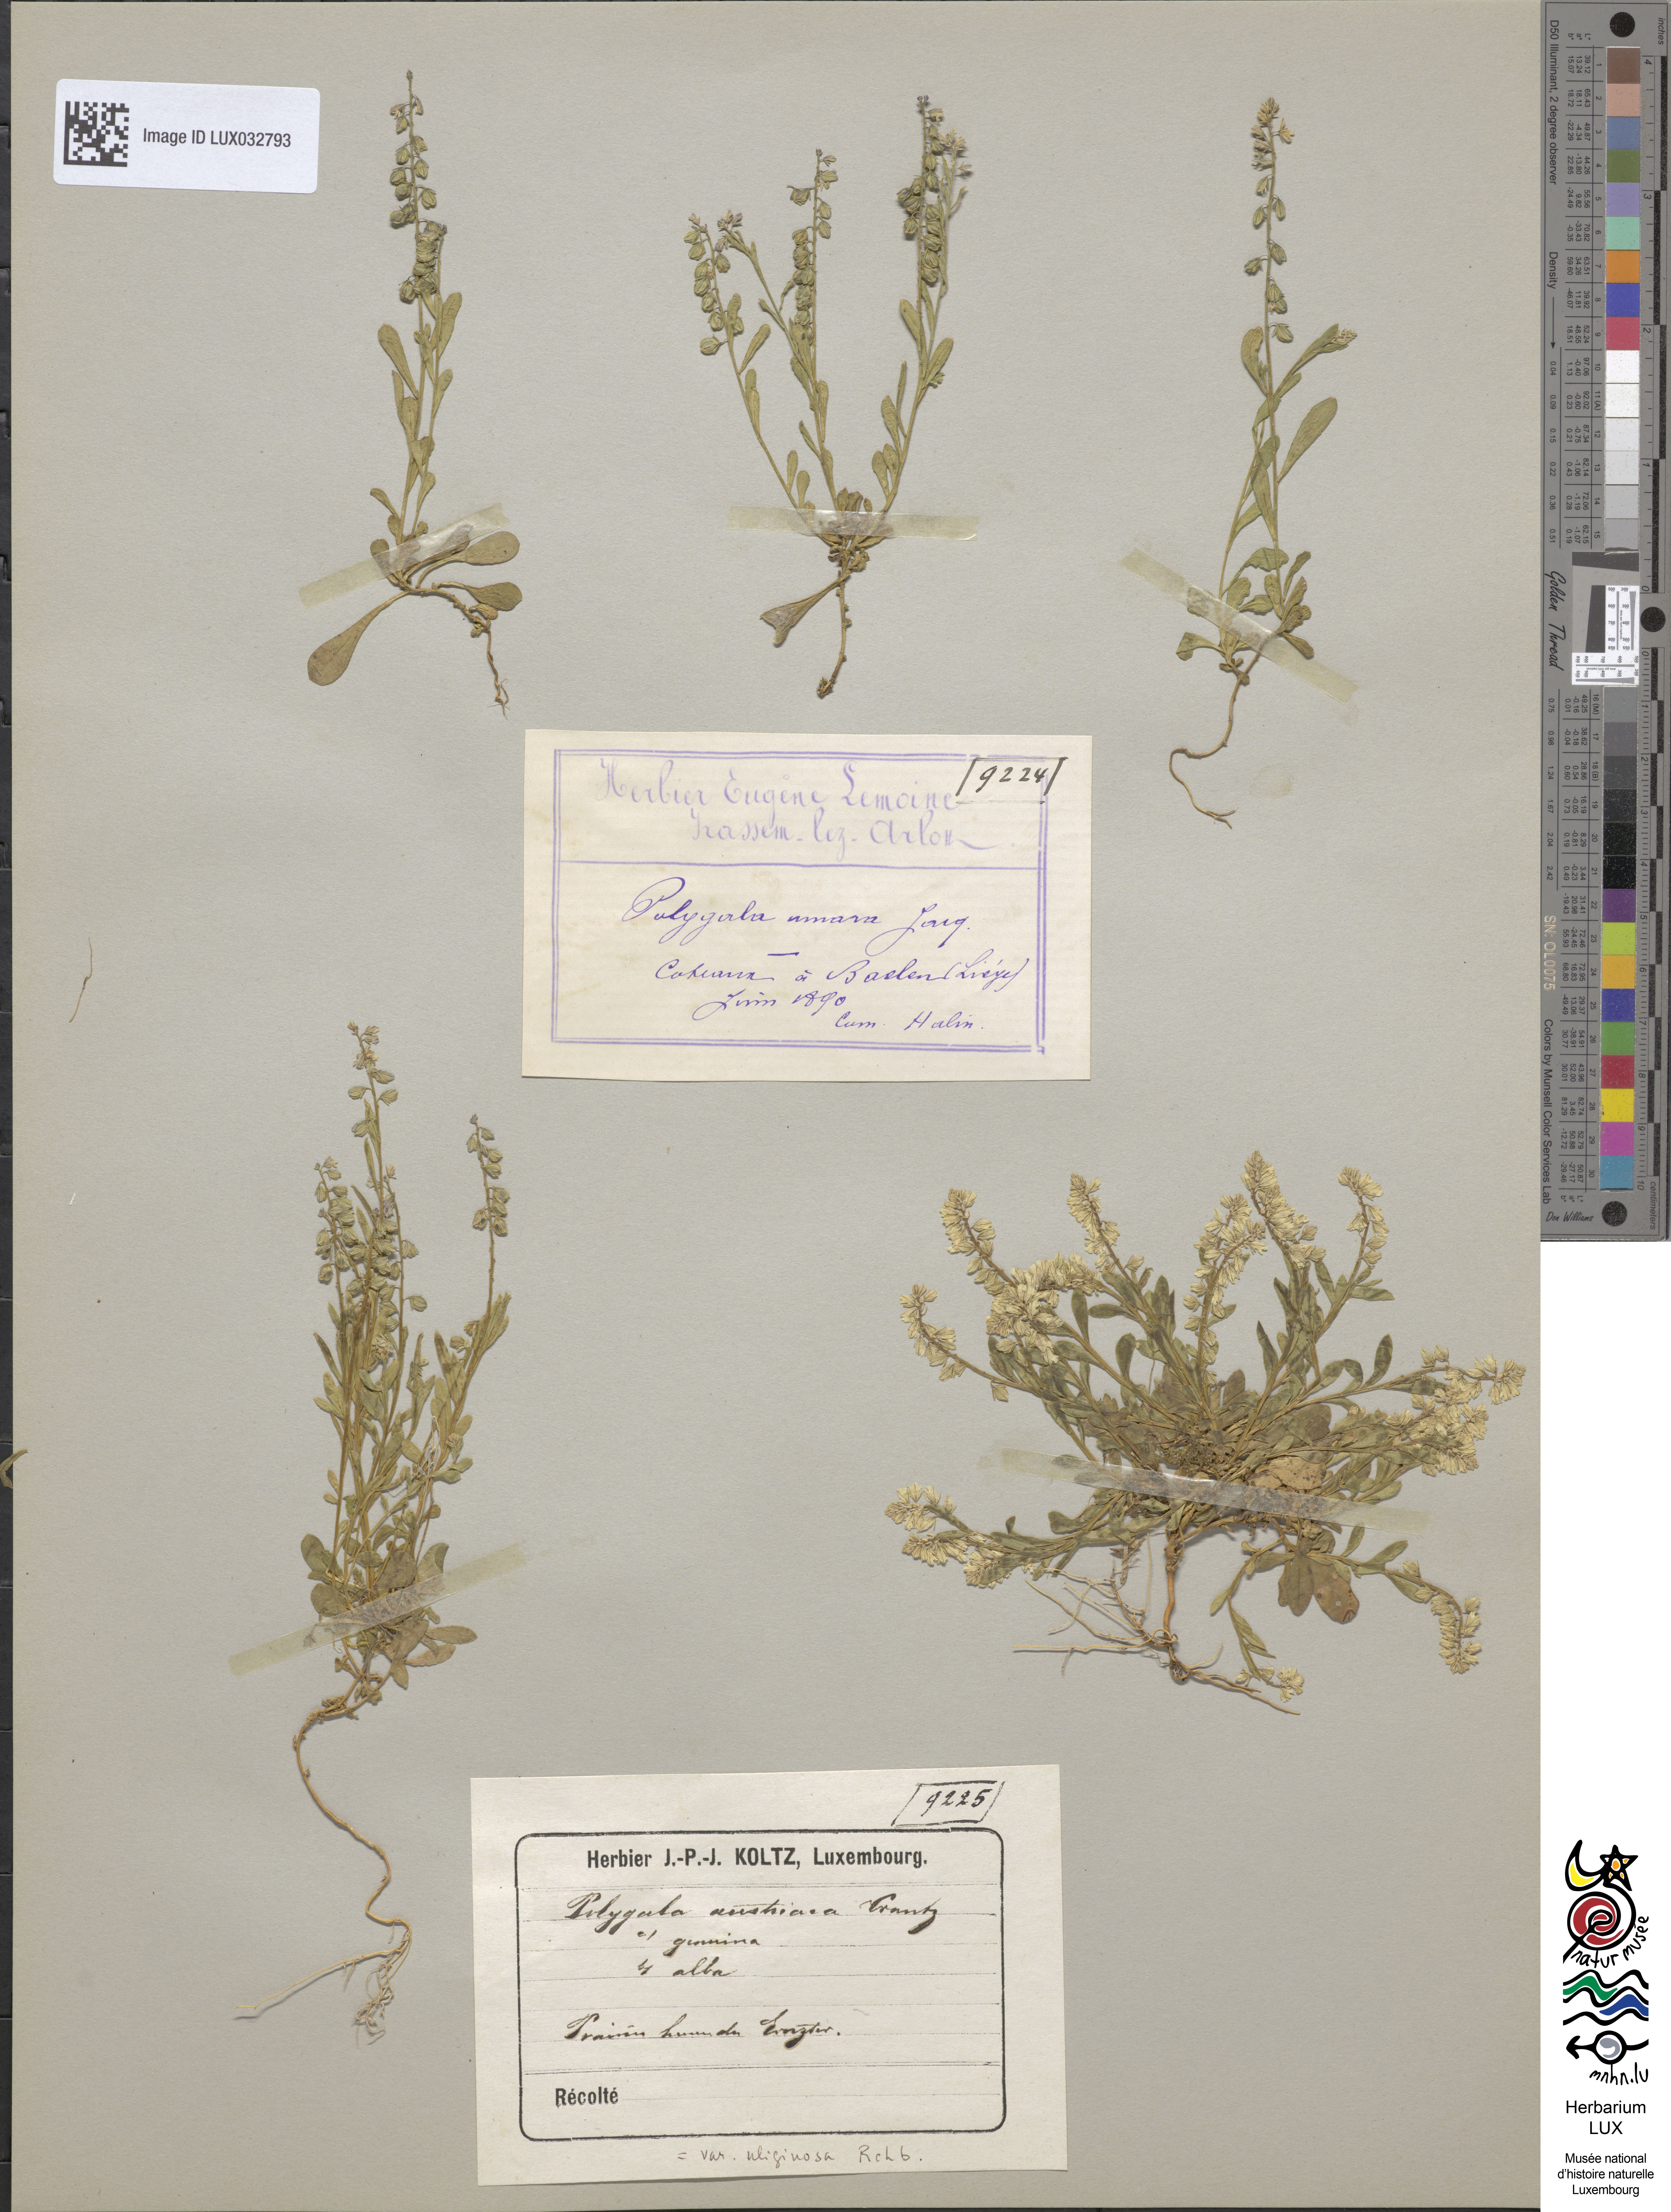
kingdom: Plantae
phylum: Tracheophyta
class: Magnoliopsida
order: Fabales
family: Polygalaceae
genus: Polygala
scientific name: Polygala amara
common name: Milkwort
